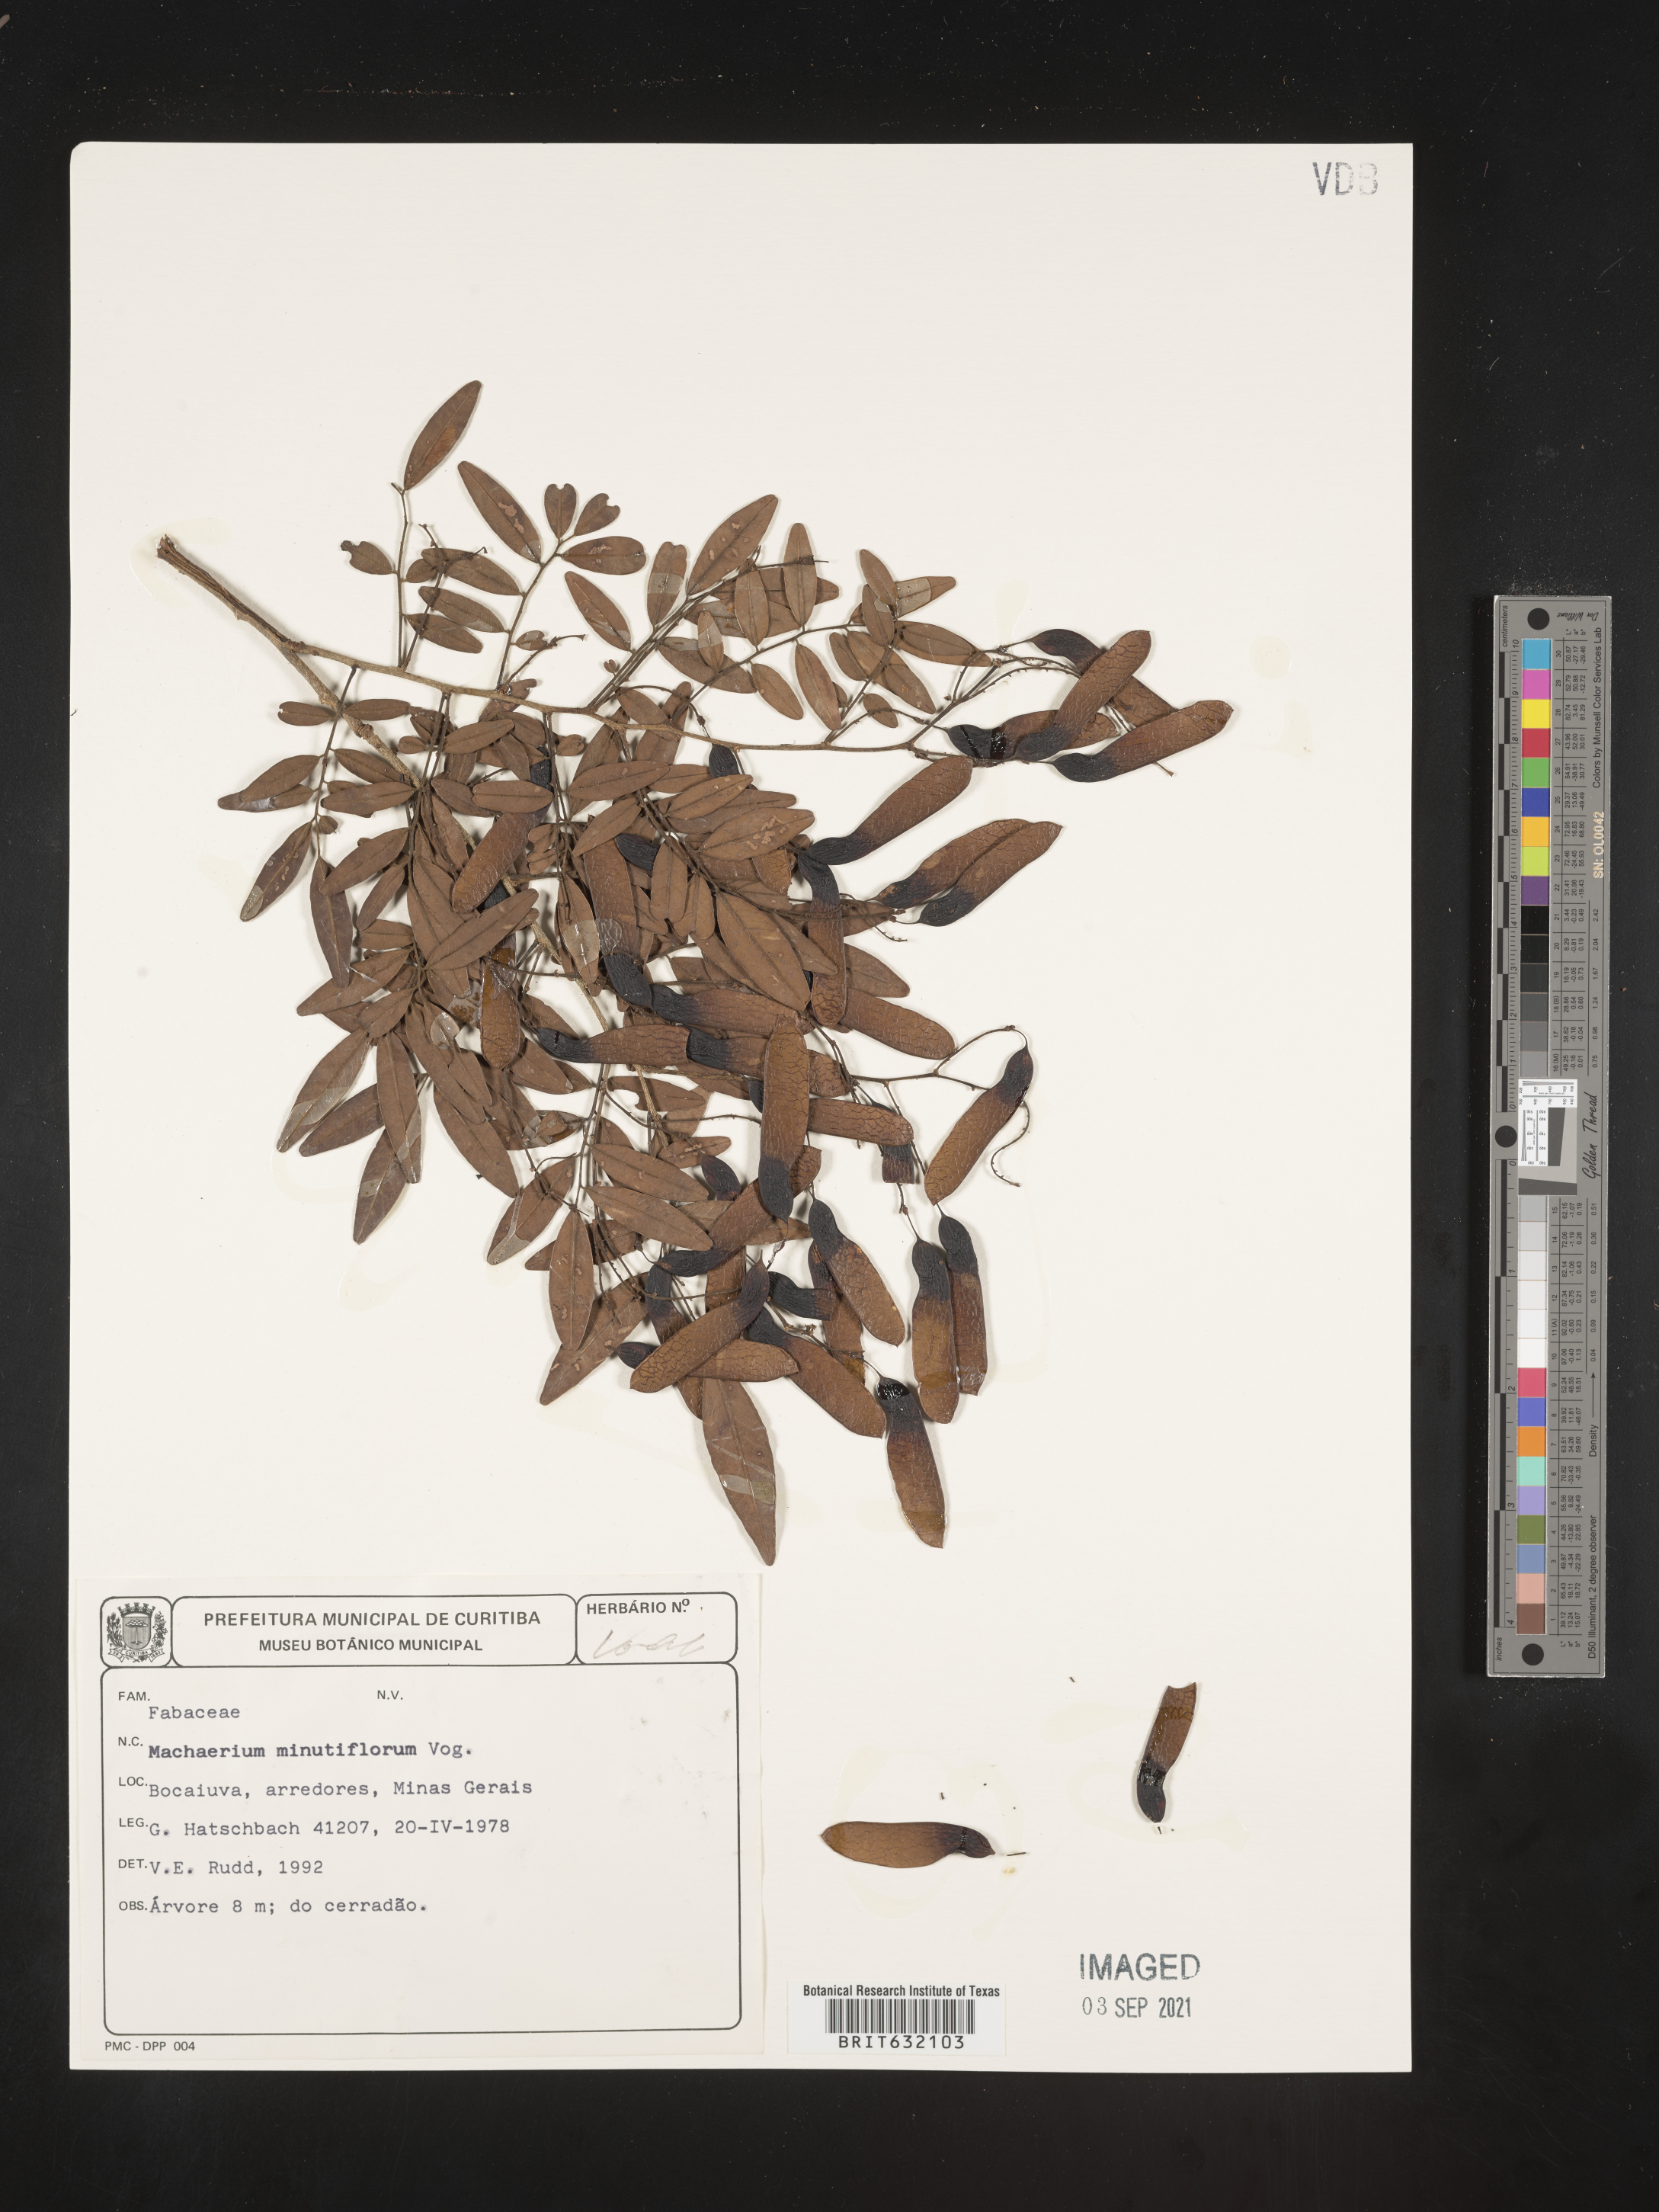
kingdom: Plantae
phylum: Tracheophyta
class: Magnoliopsida
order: Fabales
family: Fabaceae
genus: Machaerium
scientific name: Machaerium
